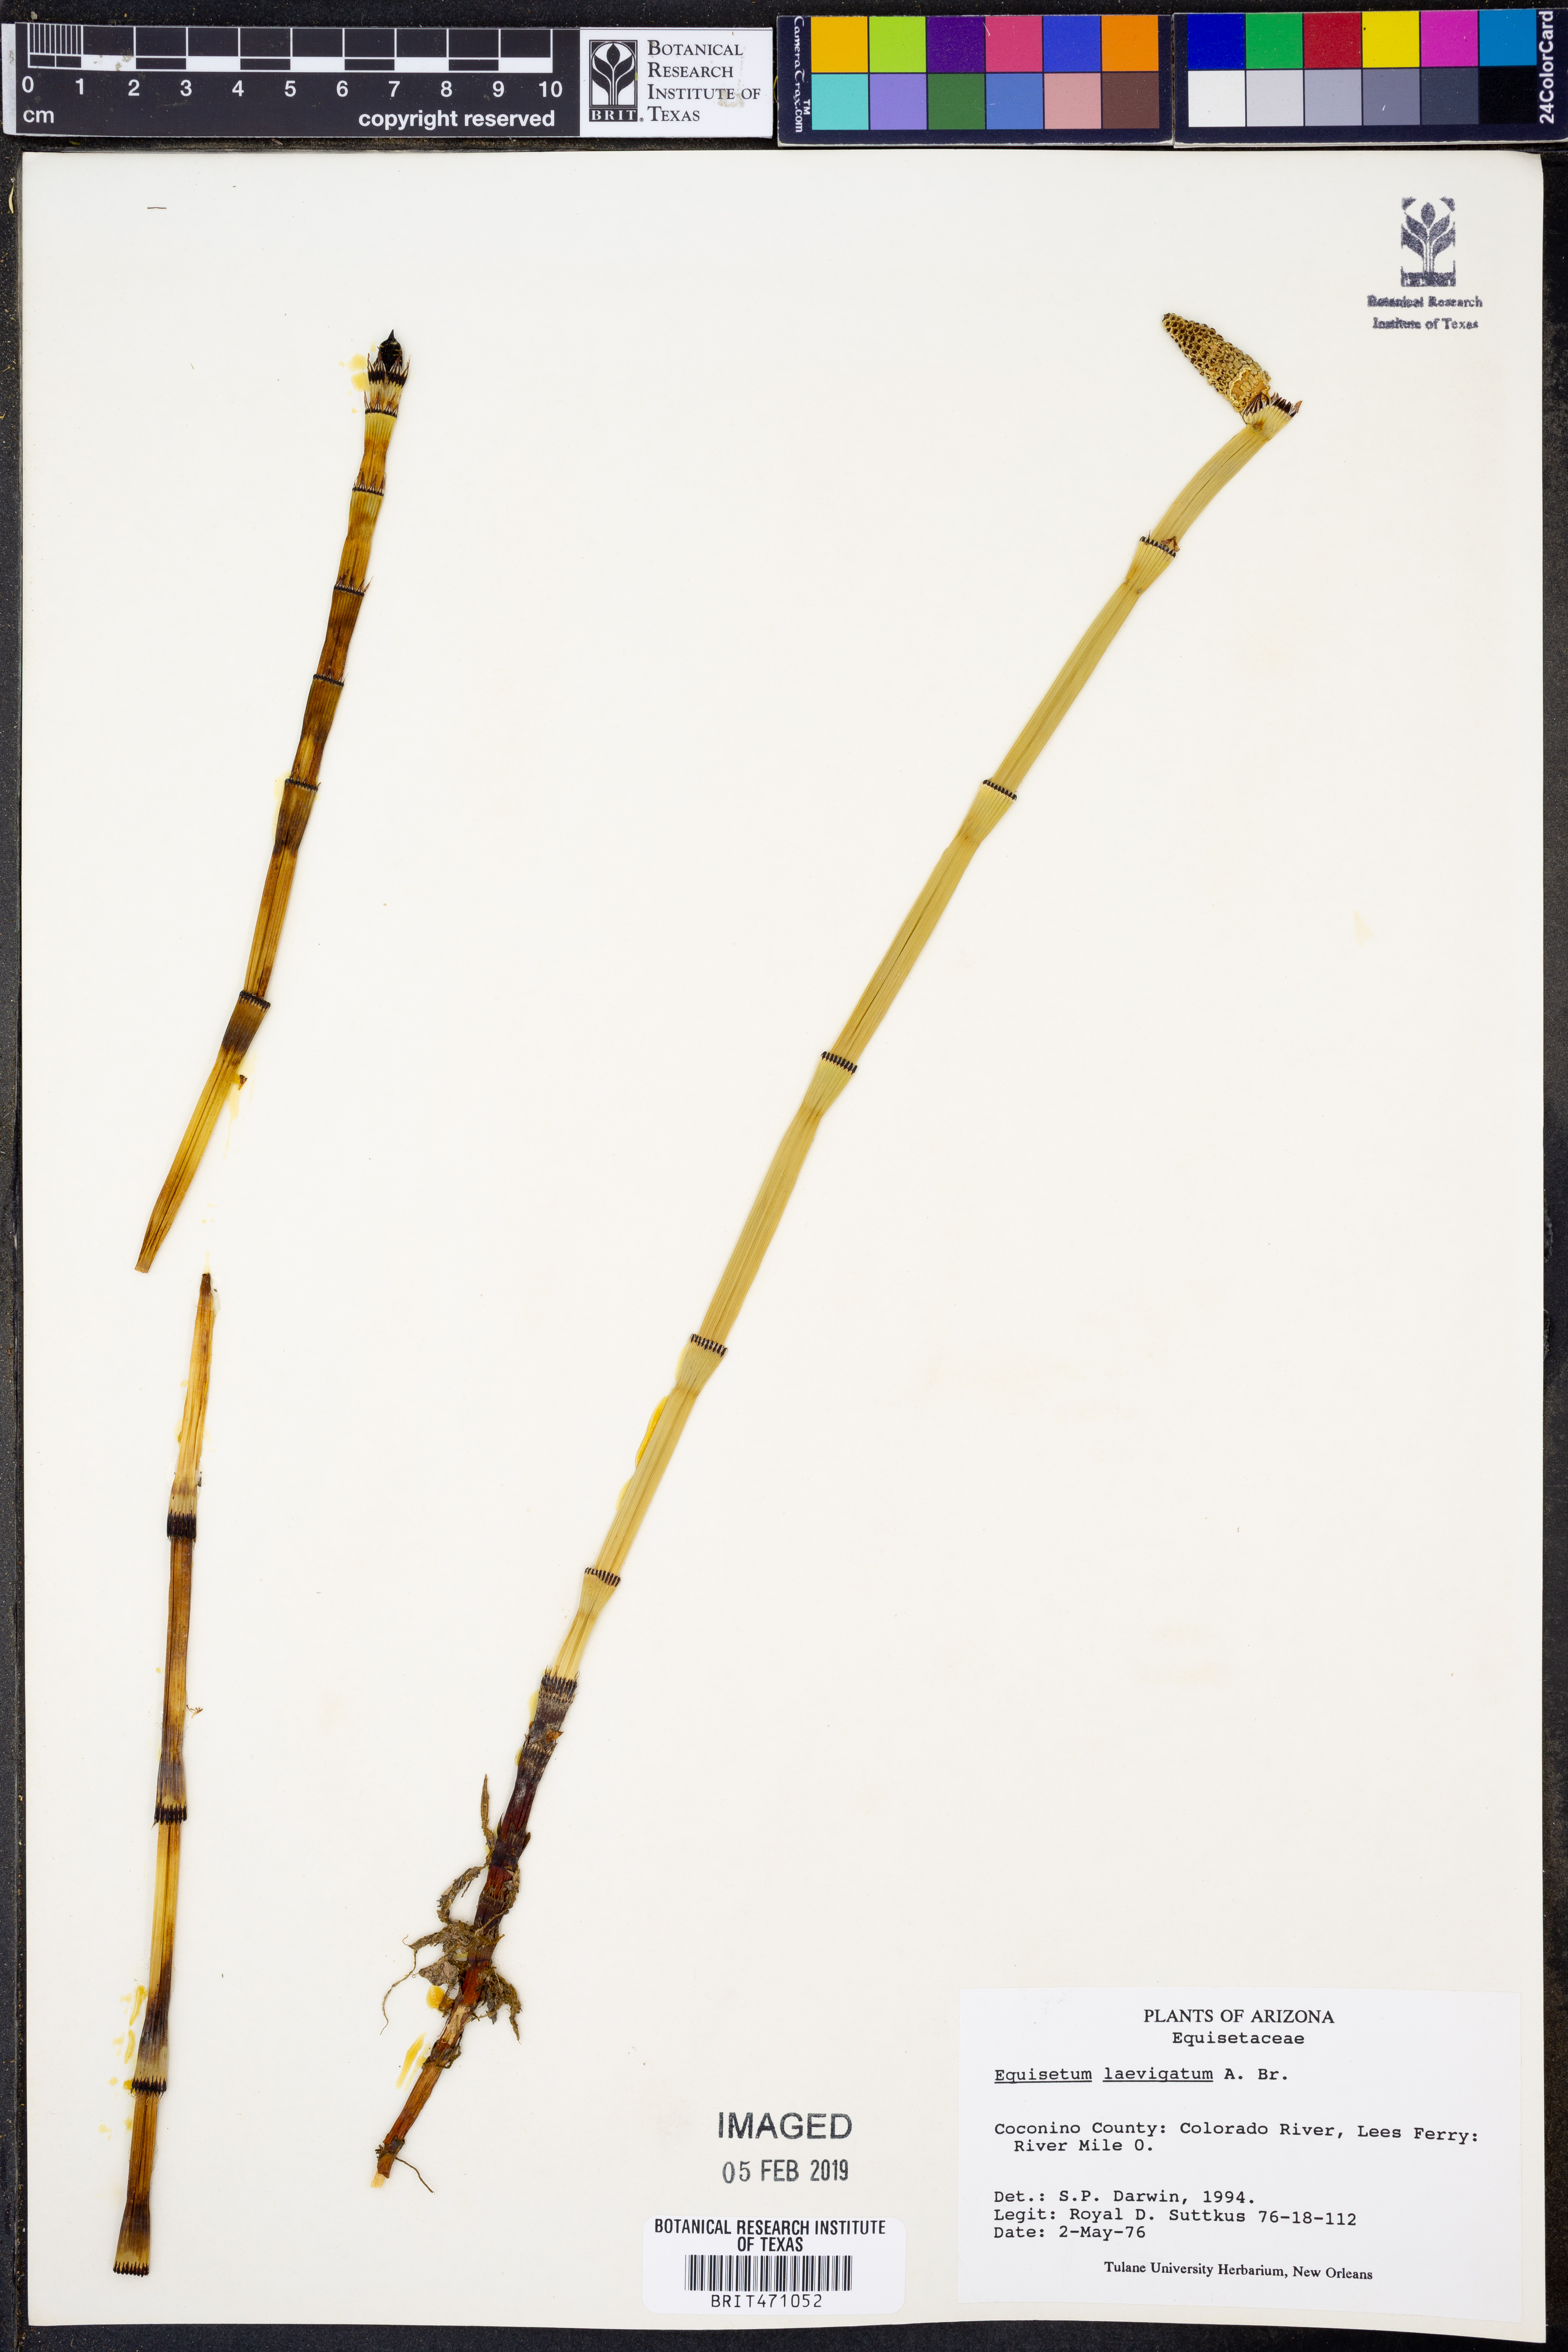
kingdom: Plantae
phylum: Tracheophyta
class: Polypodiopsida
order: Equisetales
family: Equisetaceae
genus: Equisetum
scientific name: Equisetum laevigatum
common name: Smooth scouring-rush
